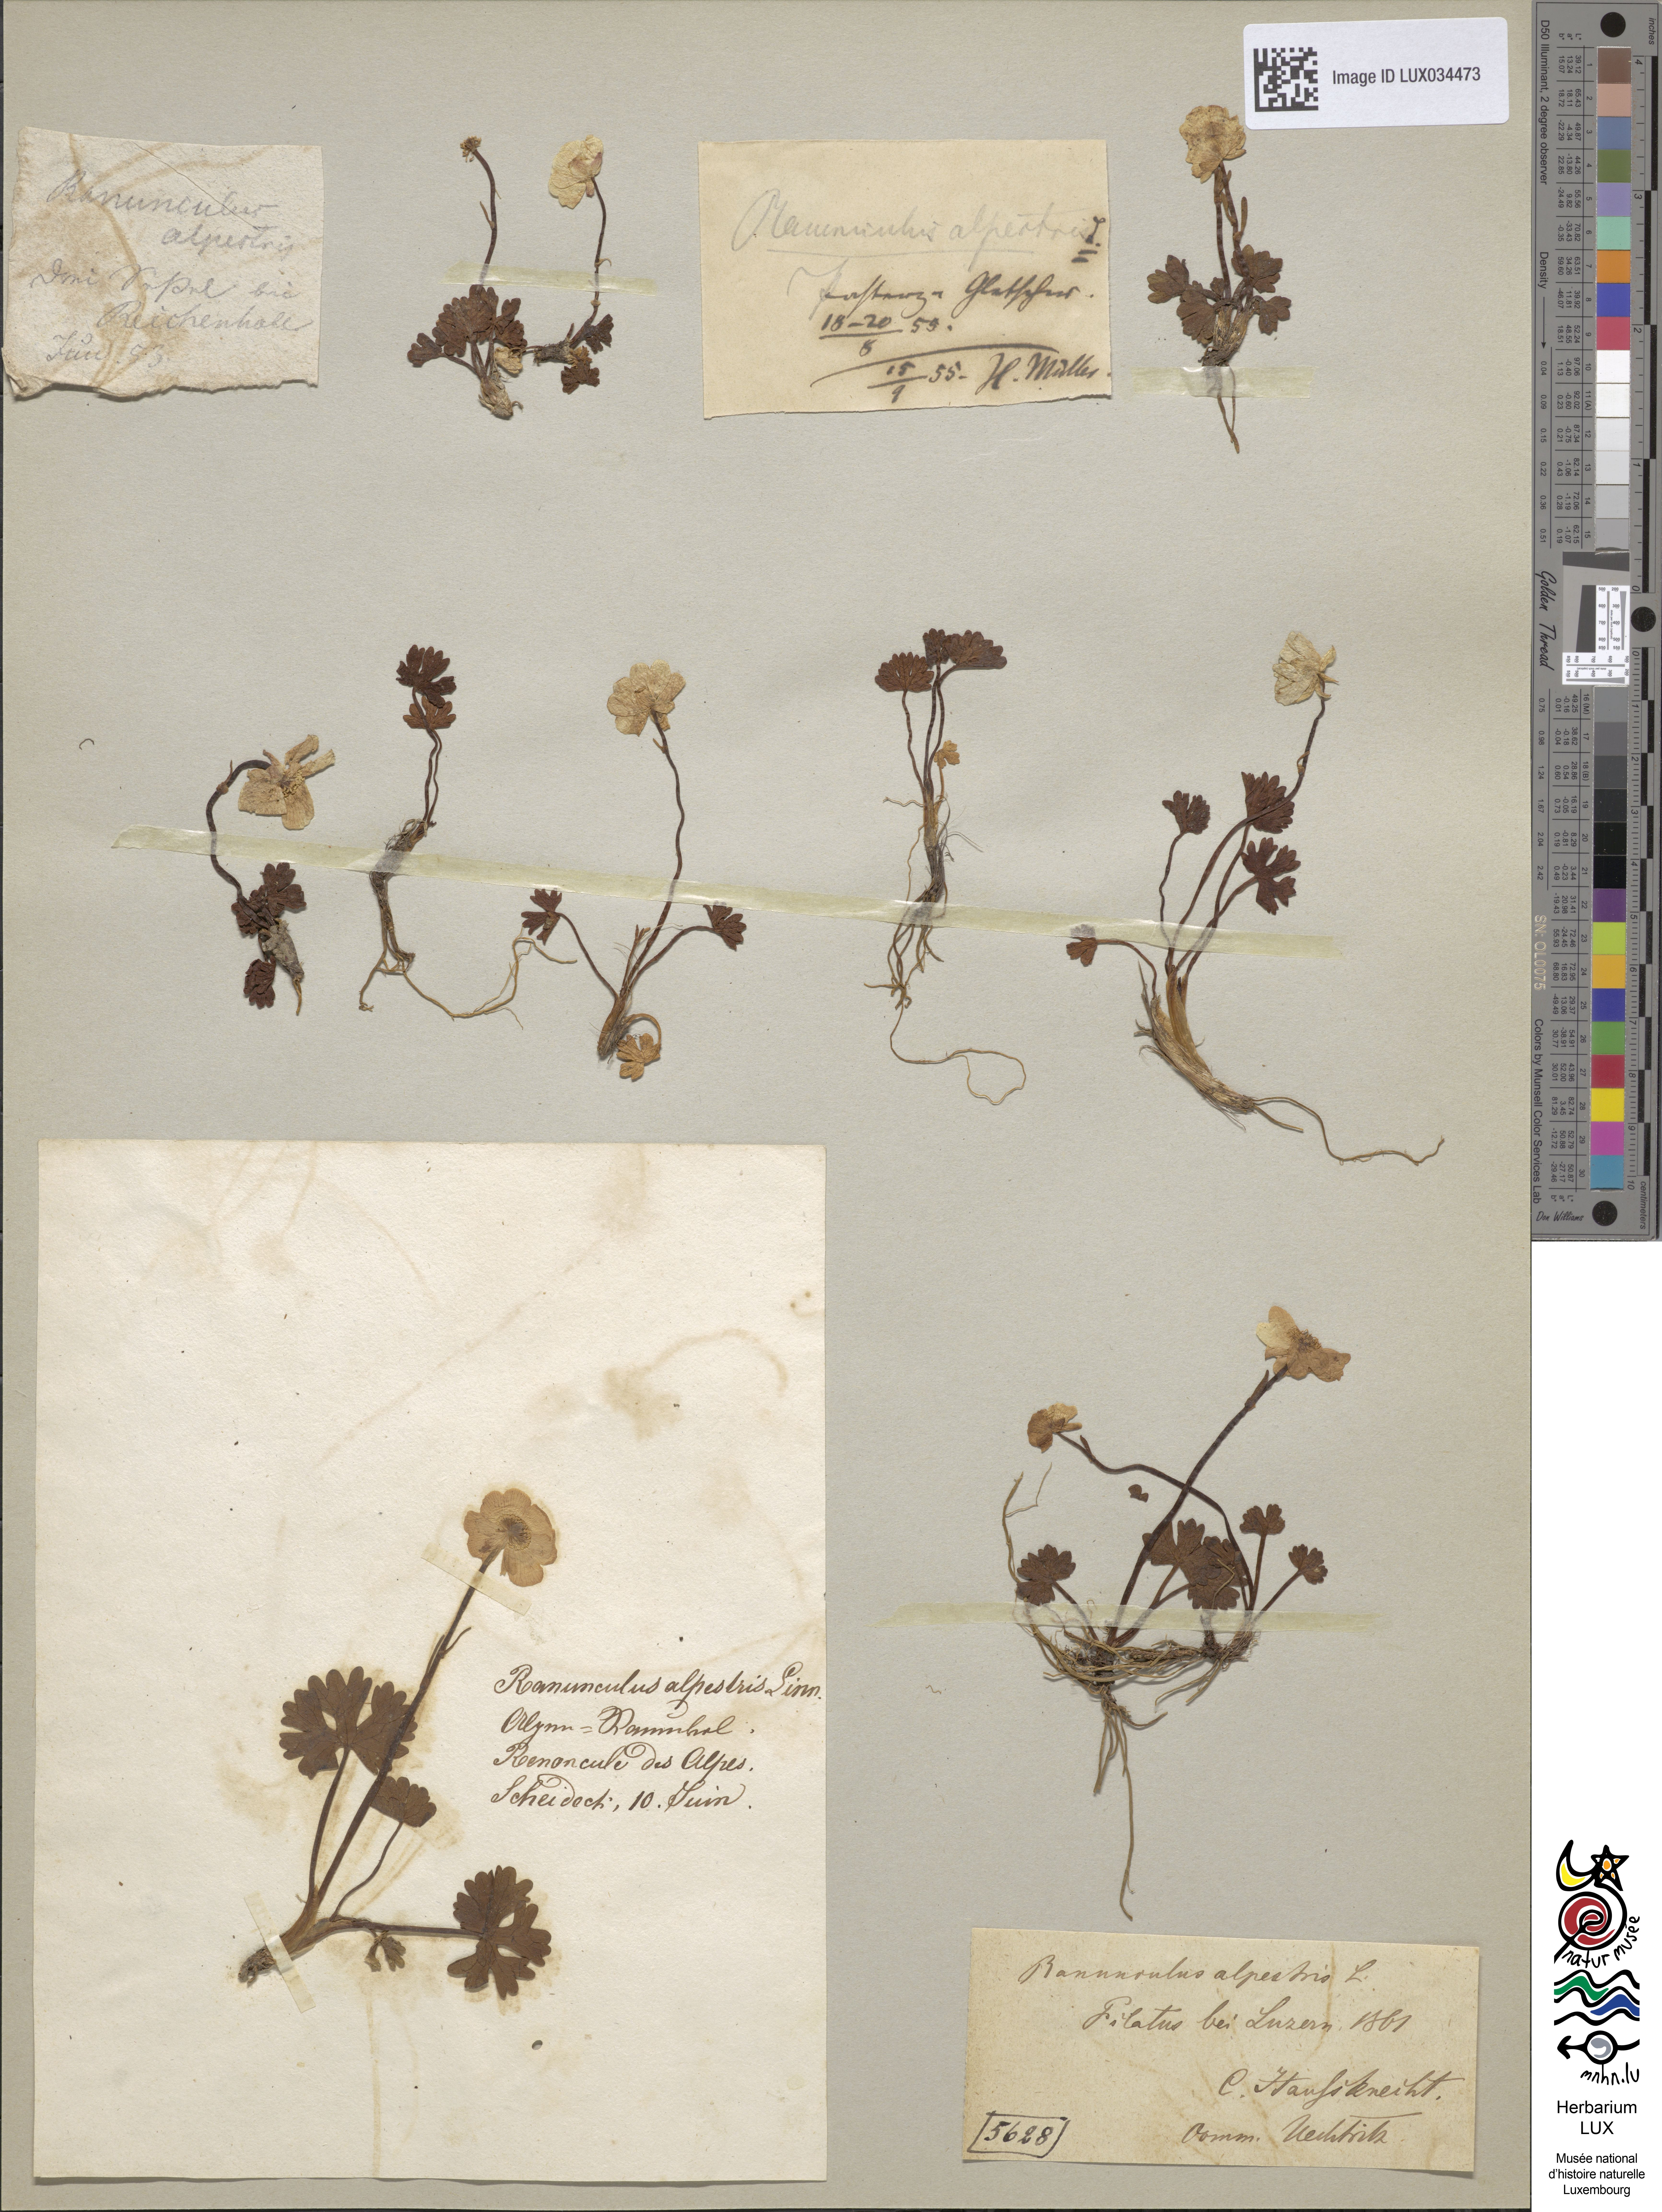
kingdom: Plantae
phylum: Tracheophyta
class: Magnoliopsida
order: Ranunculales
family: Ranunculaceae
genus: Ranunculus
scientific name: Ranunculus alpestris
